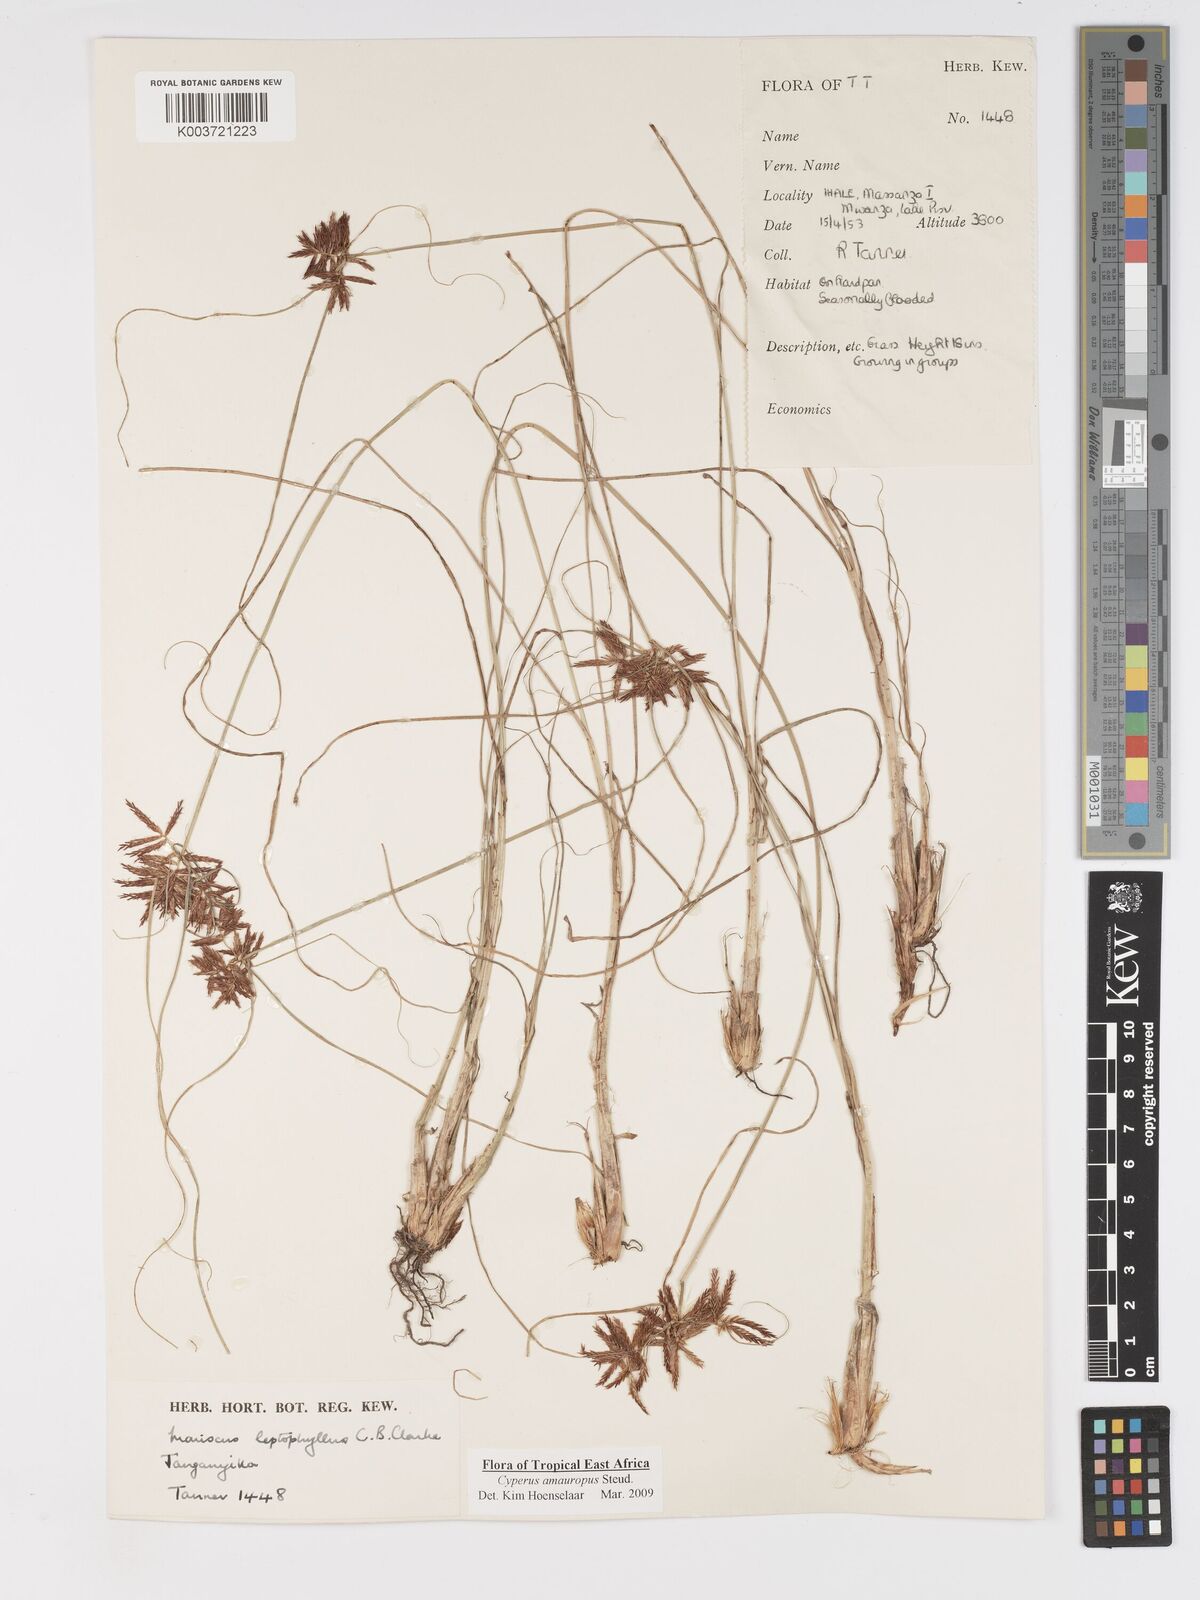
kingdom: Plantae
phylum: Tracheophyta
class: Liliopsida
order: Poales
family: Cyperaceae
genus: Cyperus
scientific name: Cyperus amauropus
